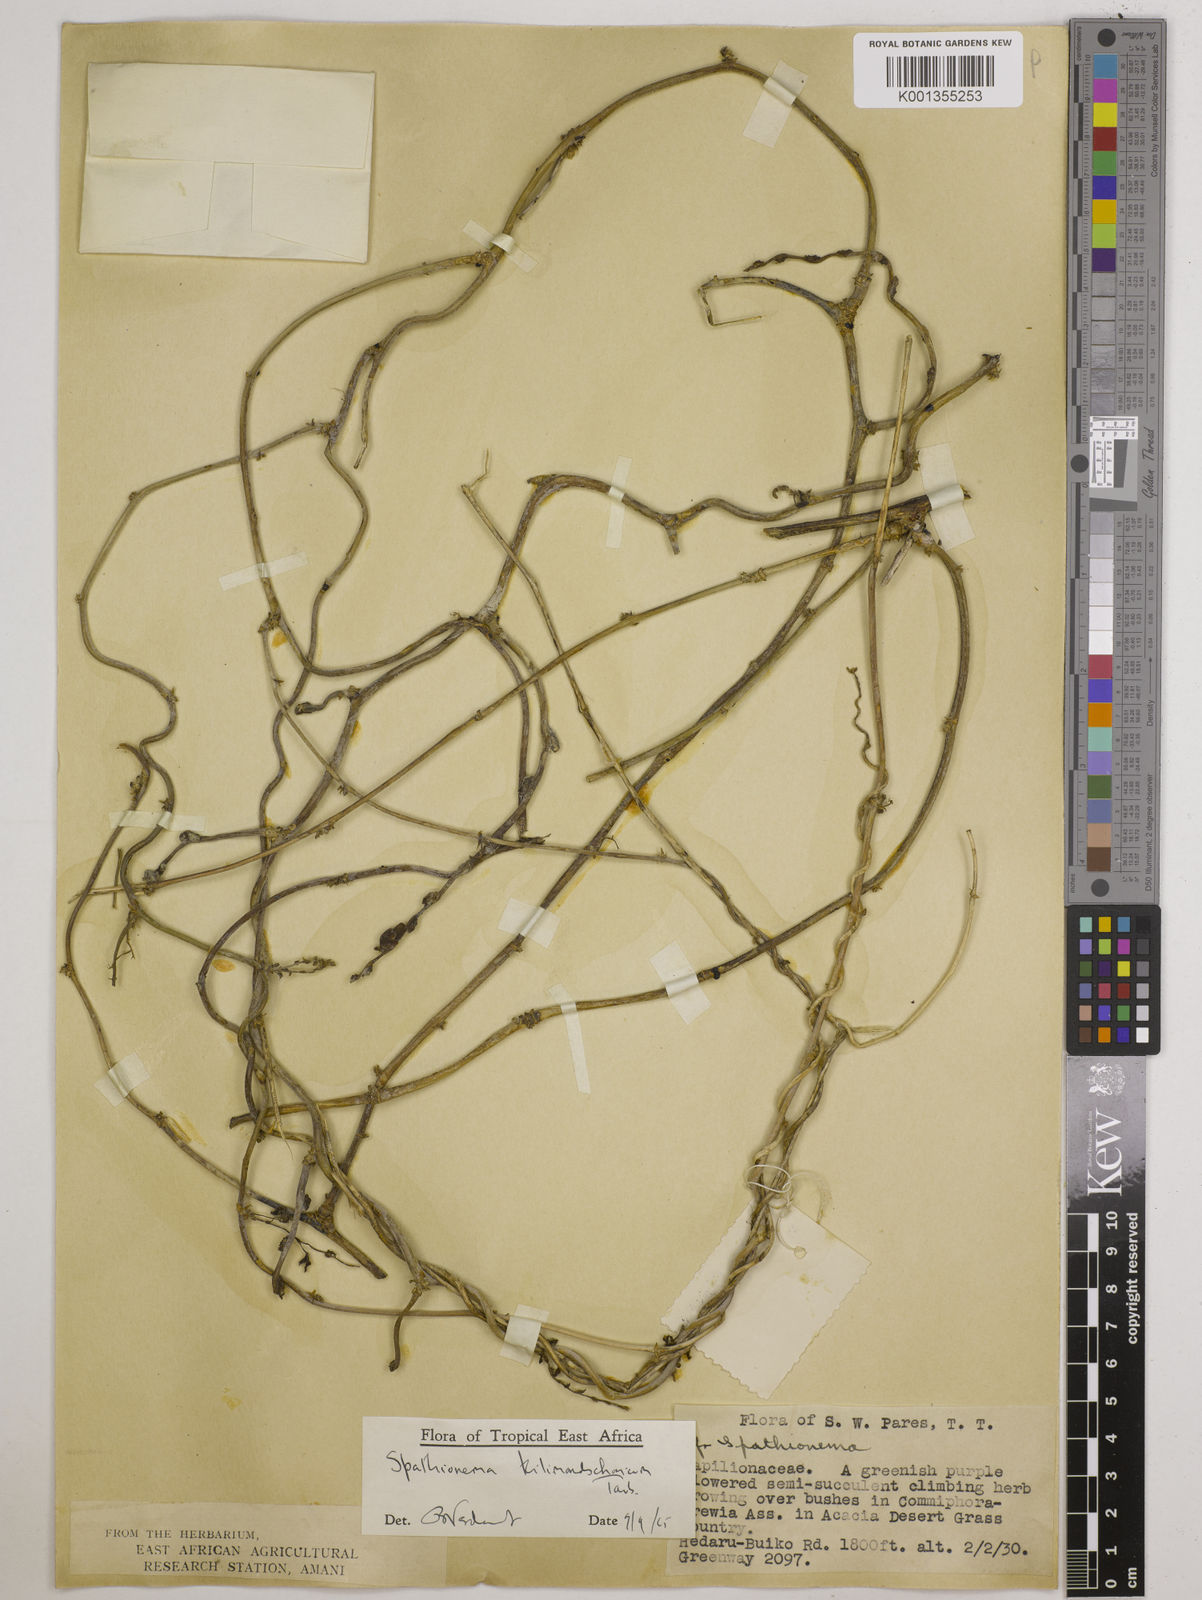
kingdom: Plantae
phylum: Tracheophyta
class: Magnoliopsida
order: Fabales
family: Fabaceae
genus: Spathionema
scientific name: Spathionema kilimandscharicum
